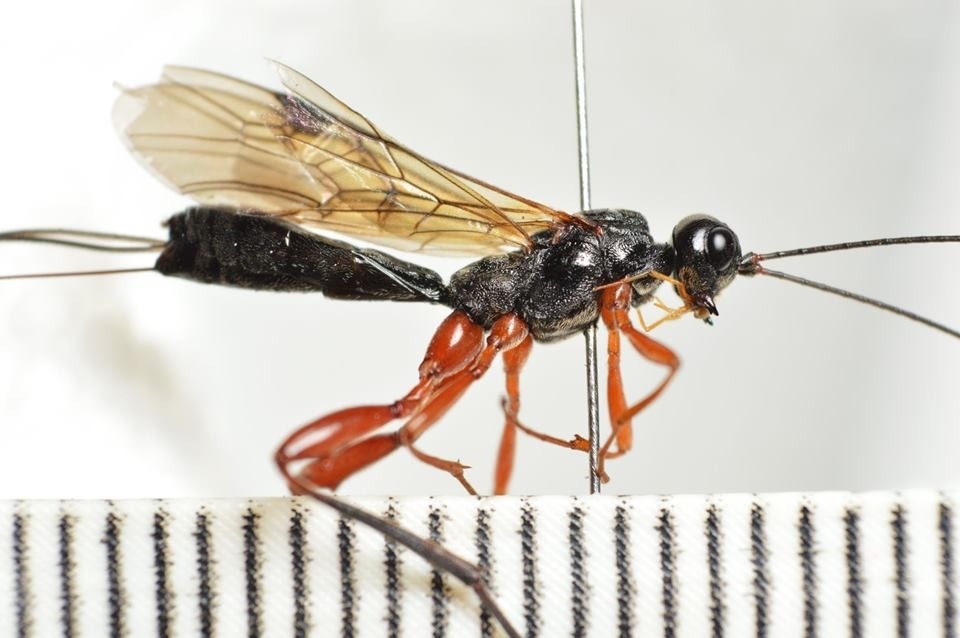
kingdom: Animalia
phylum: Arthropoda
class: Insecta
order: Hymenoptera
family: Braconidae
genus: Helconidea
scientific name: Helconidea dentator
